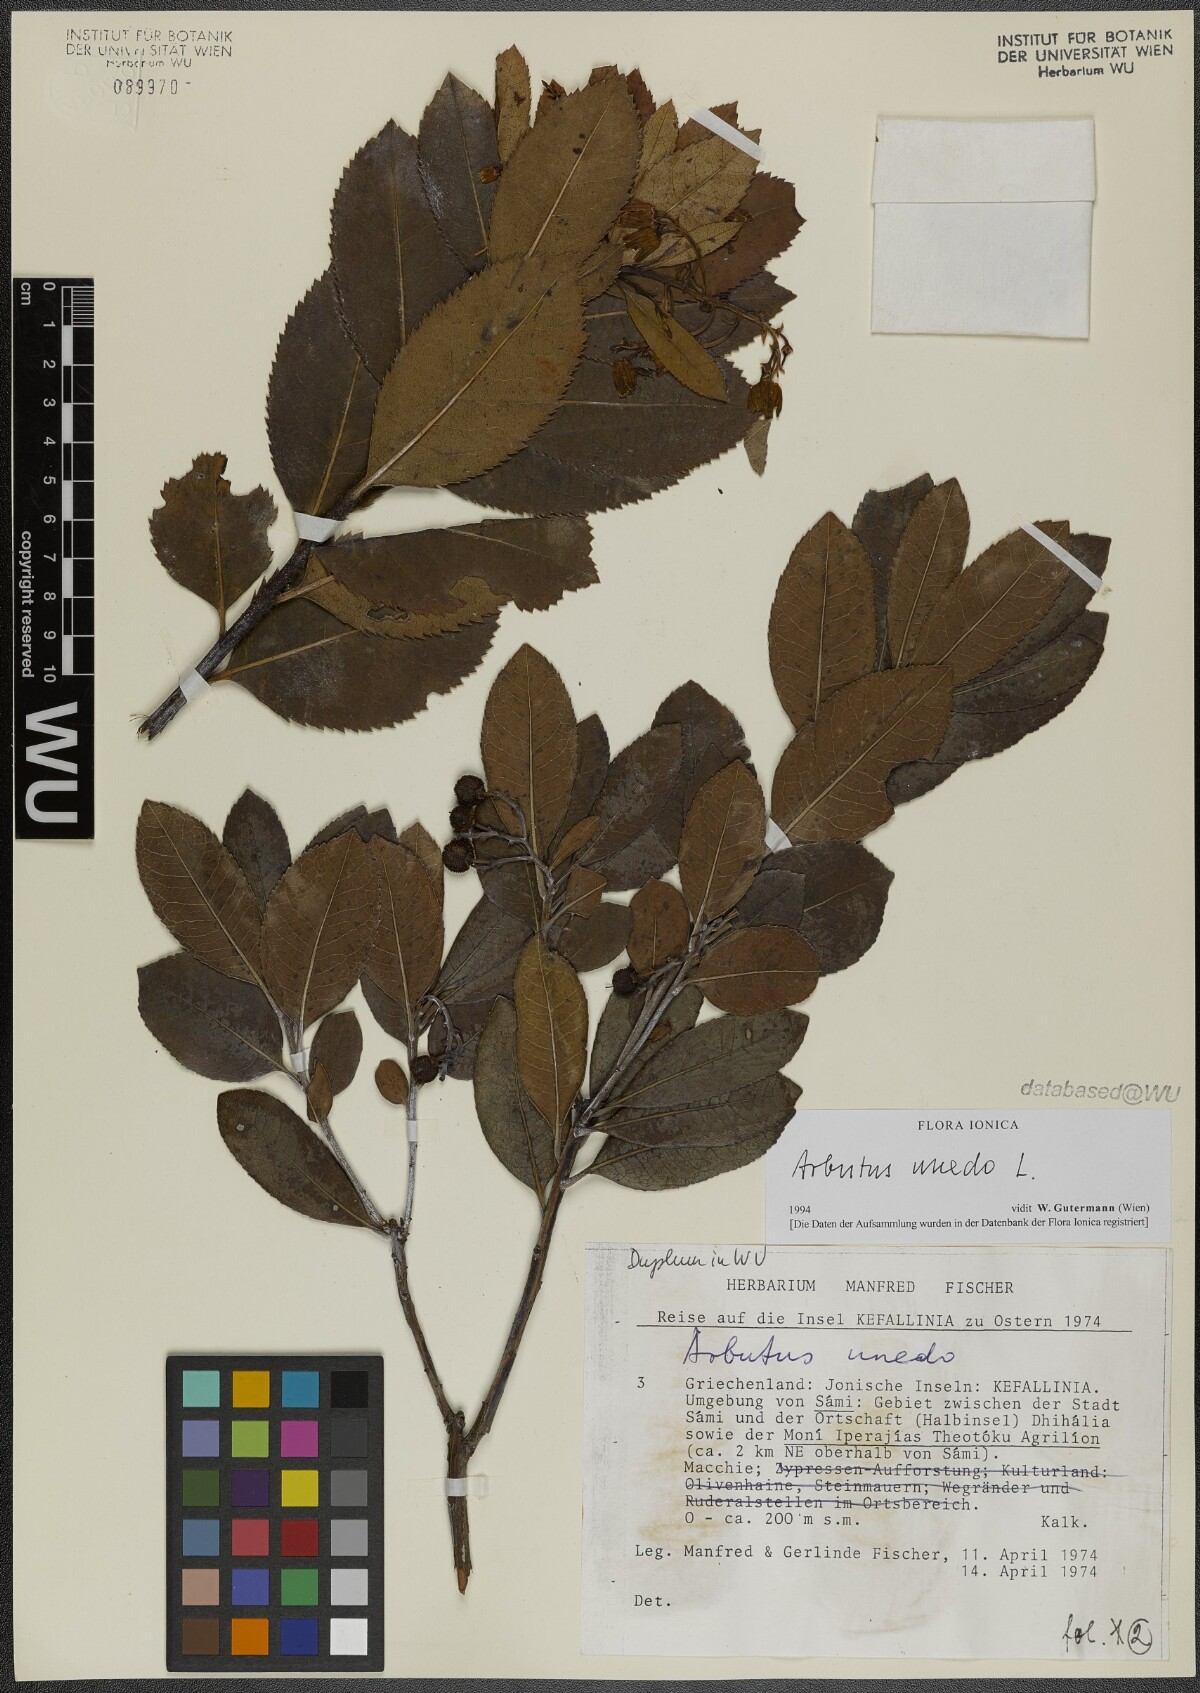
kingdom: Plantae
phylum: Tracheophyta
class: Magnoliopsida
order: Ericales
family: Ericaceae
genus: Arbutus
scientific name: Arbutus unedo
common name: Strawberry-tree
